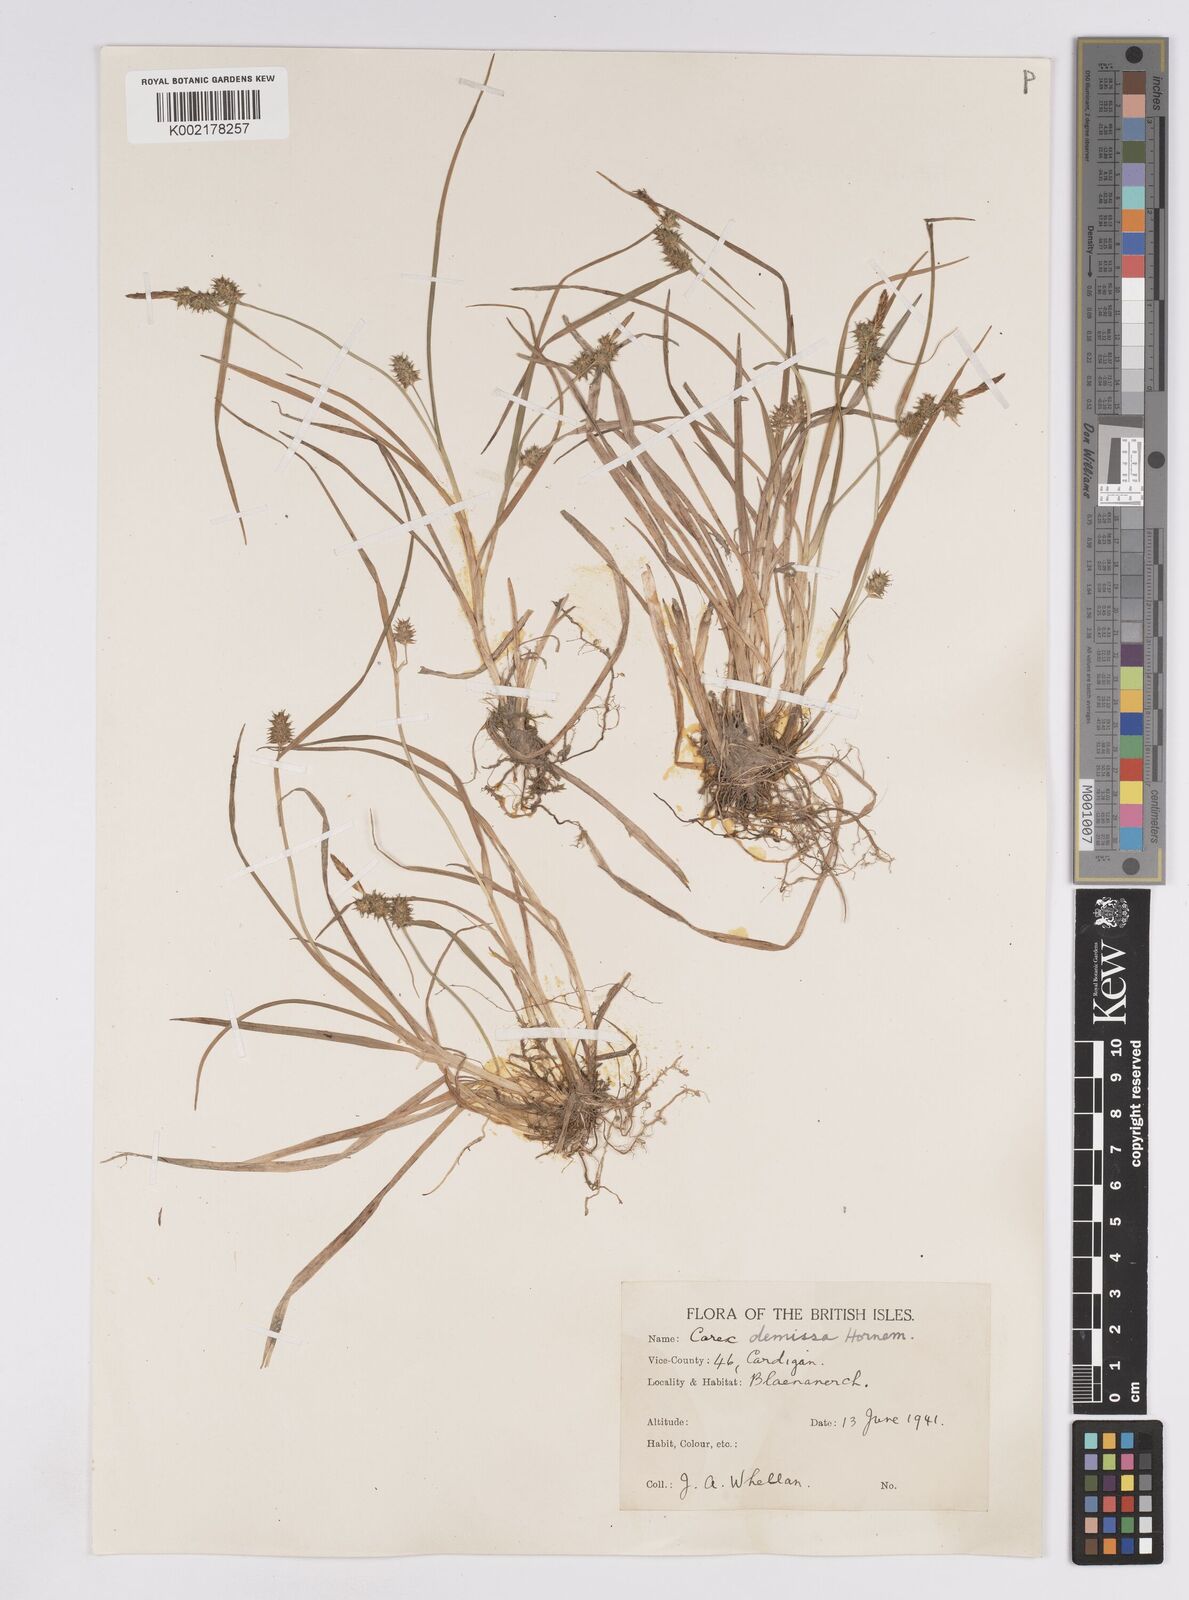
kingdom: Plantae
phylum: Tracheophyta
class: Liliopsida
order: Poales
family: Cyperaceae
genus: Carex
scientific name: Carex demissa
